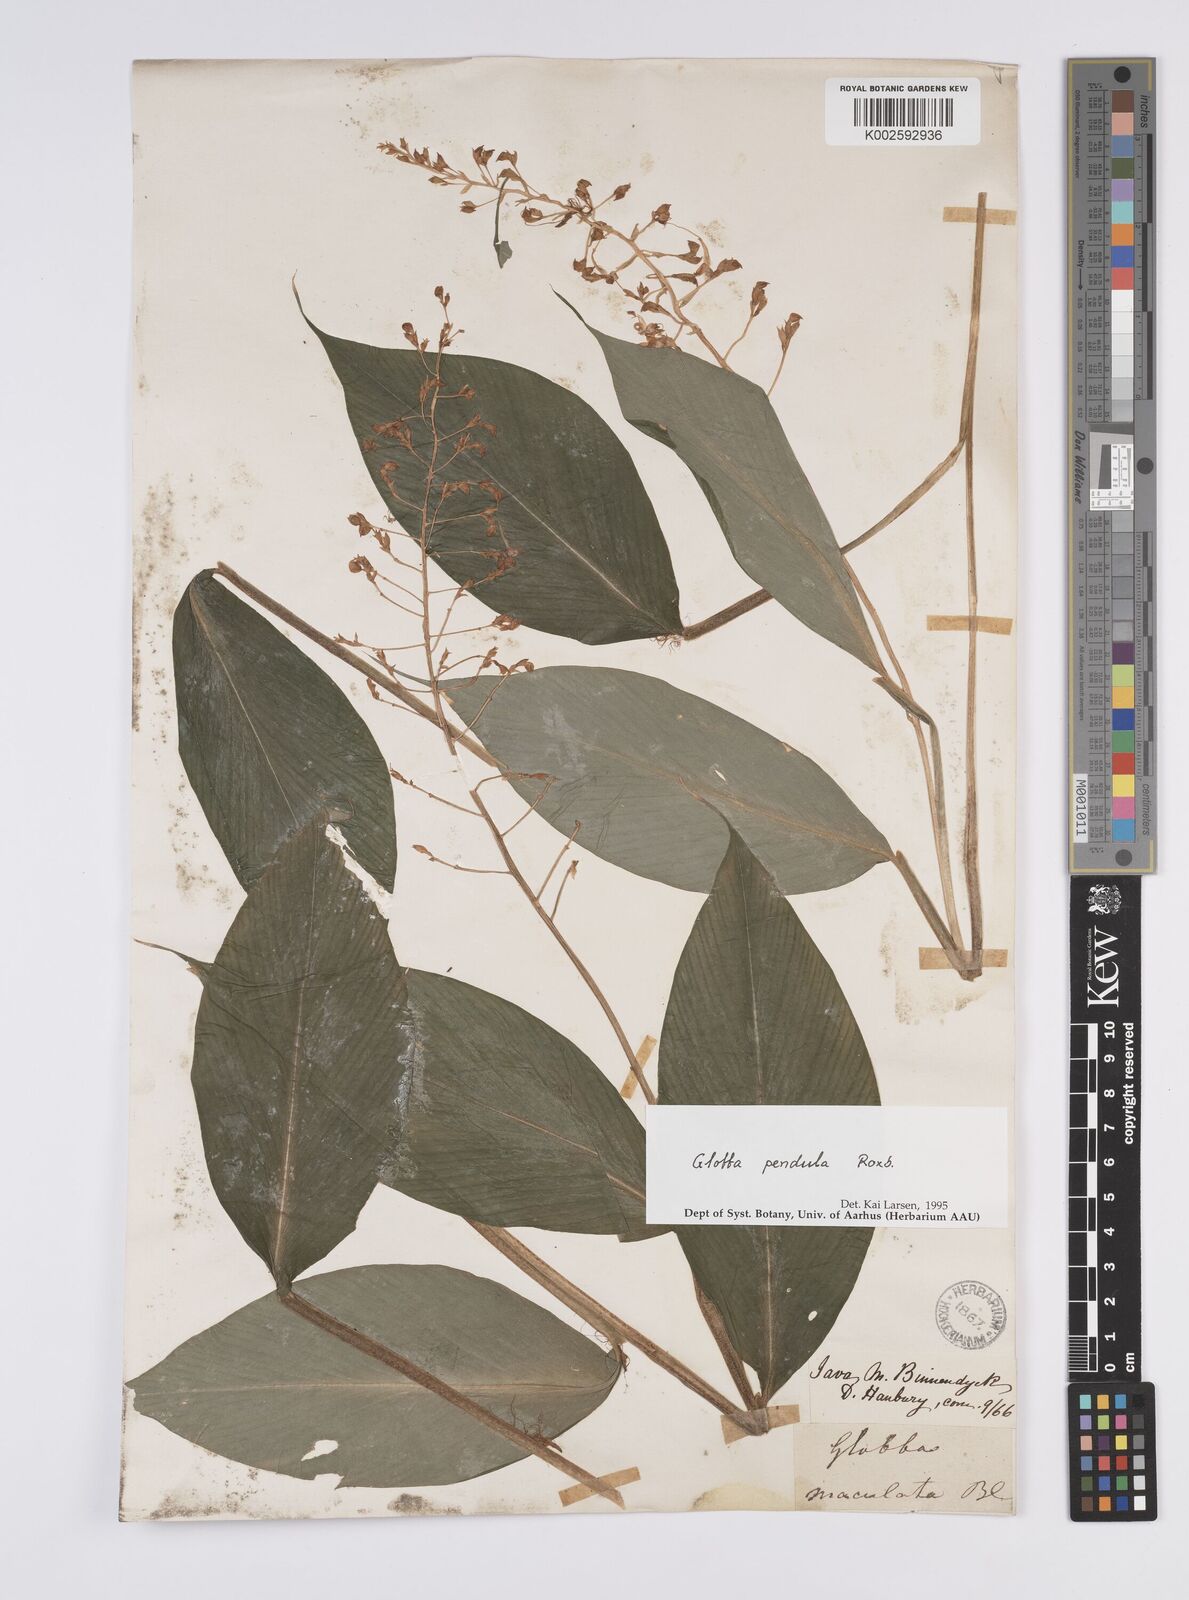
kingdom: Plantae
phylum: Tracheophyta
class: Liliopsida
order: Zingiberales
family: Zingiberaceae
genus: Globba
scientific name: Globba pendula
